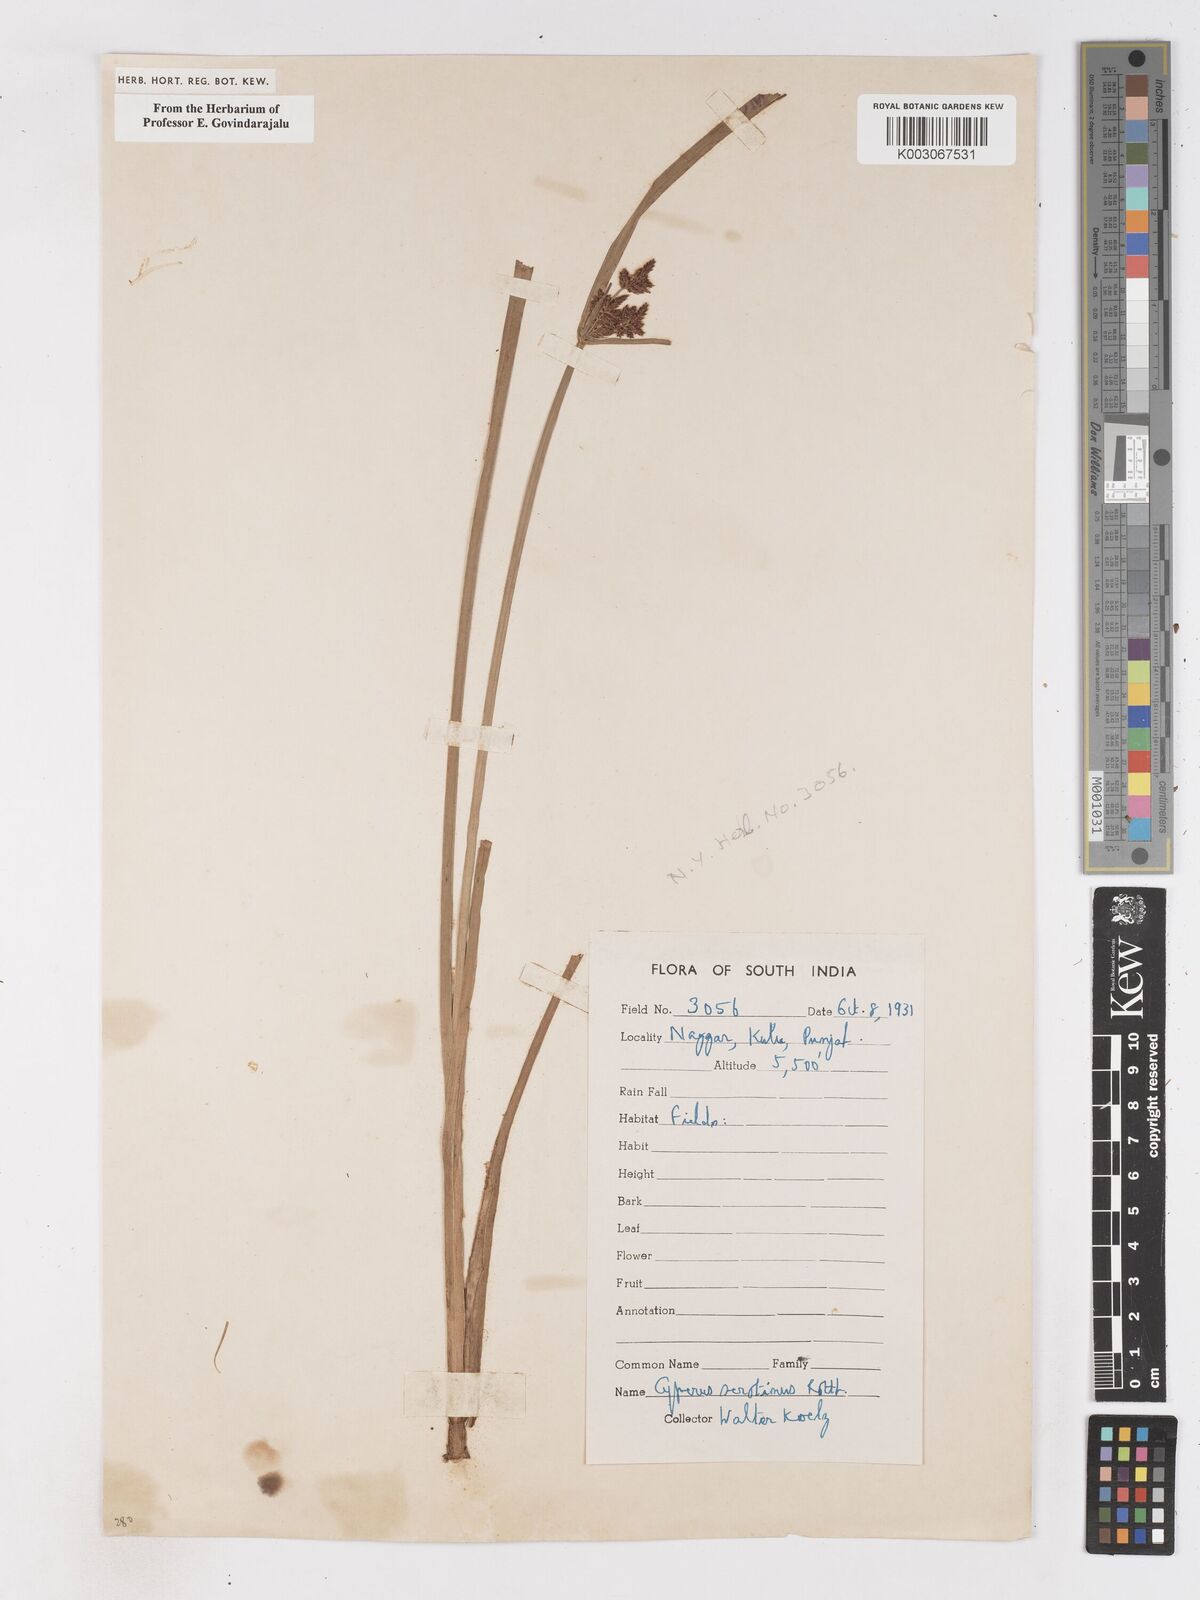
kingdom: Plantae
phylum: Tracheophyta
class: Liliopsida
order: Poales
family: Cyperaceae
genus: Cyperus
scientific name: Cyperus serotinus
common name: Tidalmarsh flatsedge
